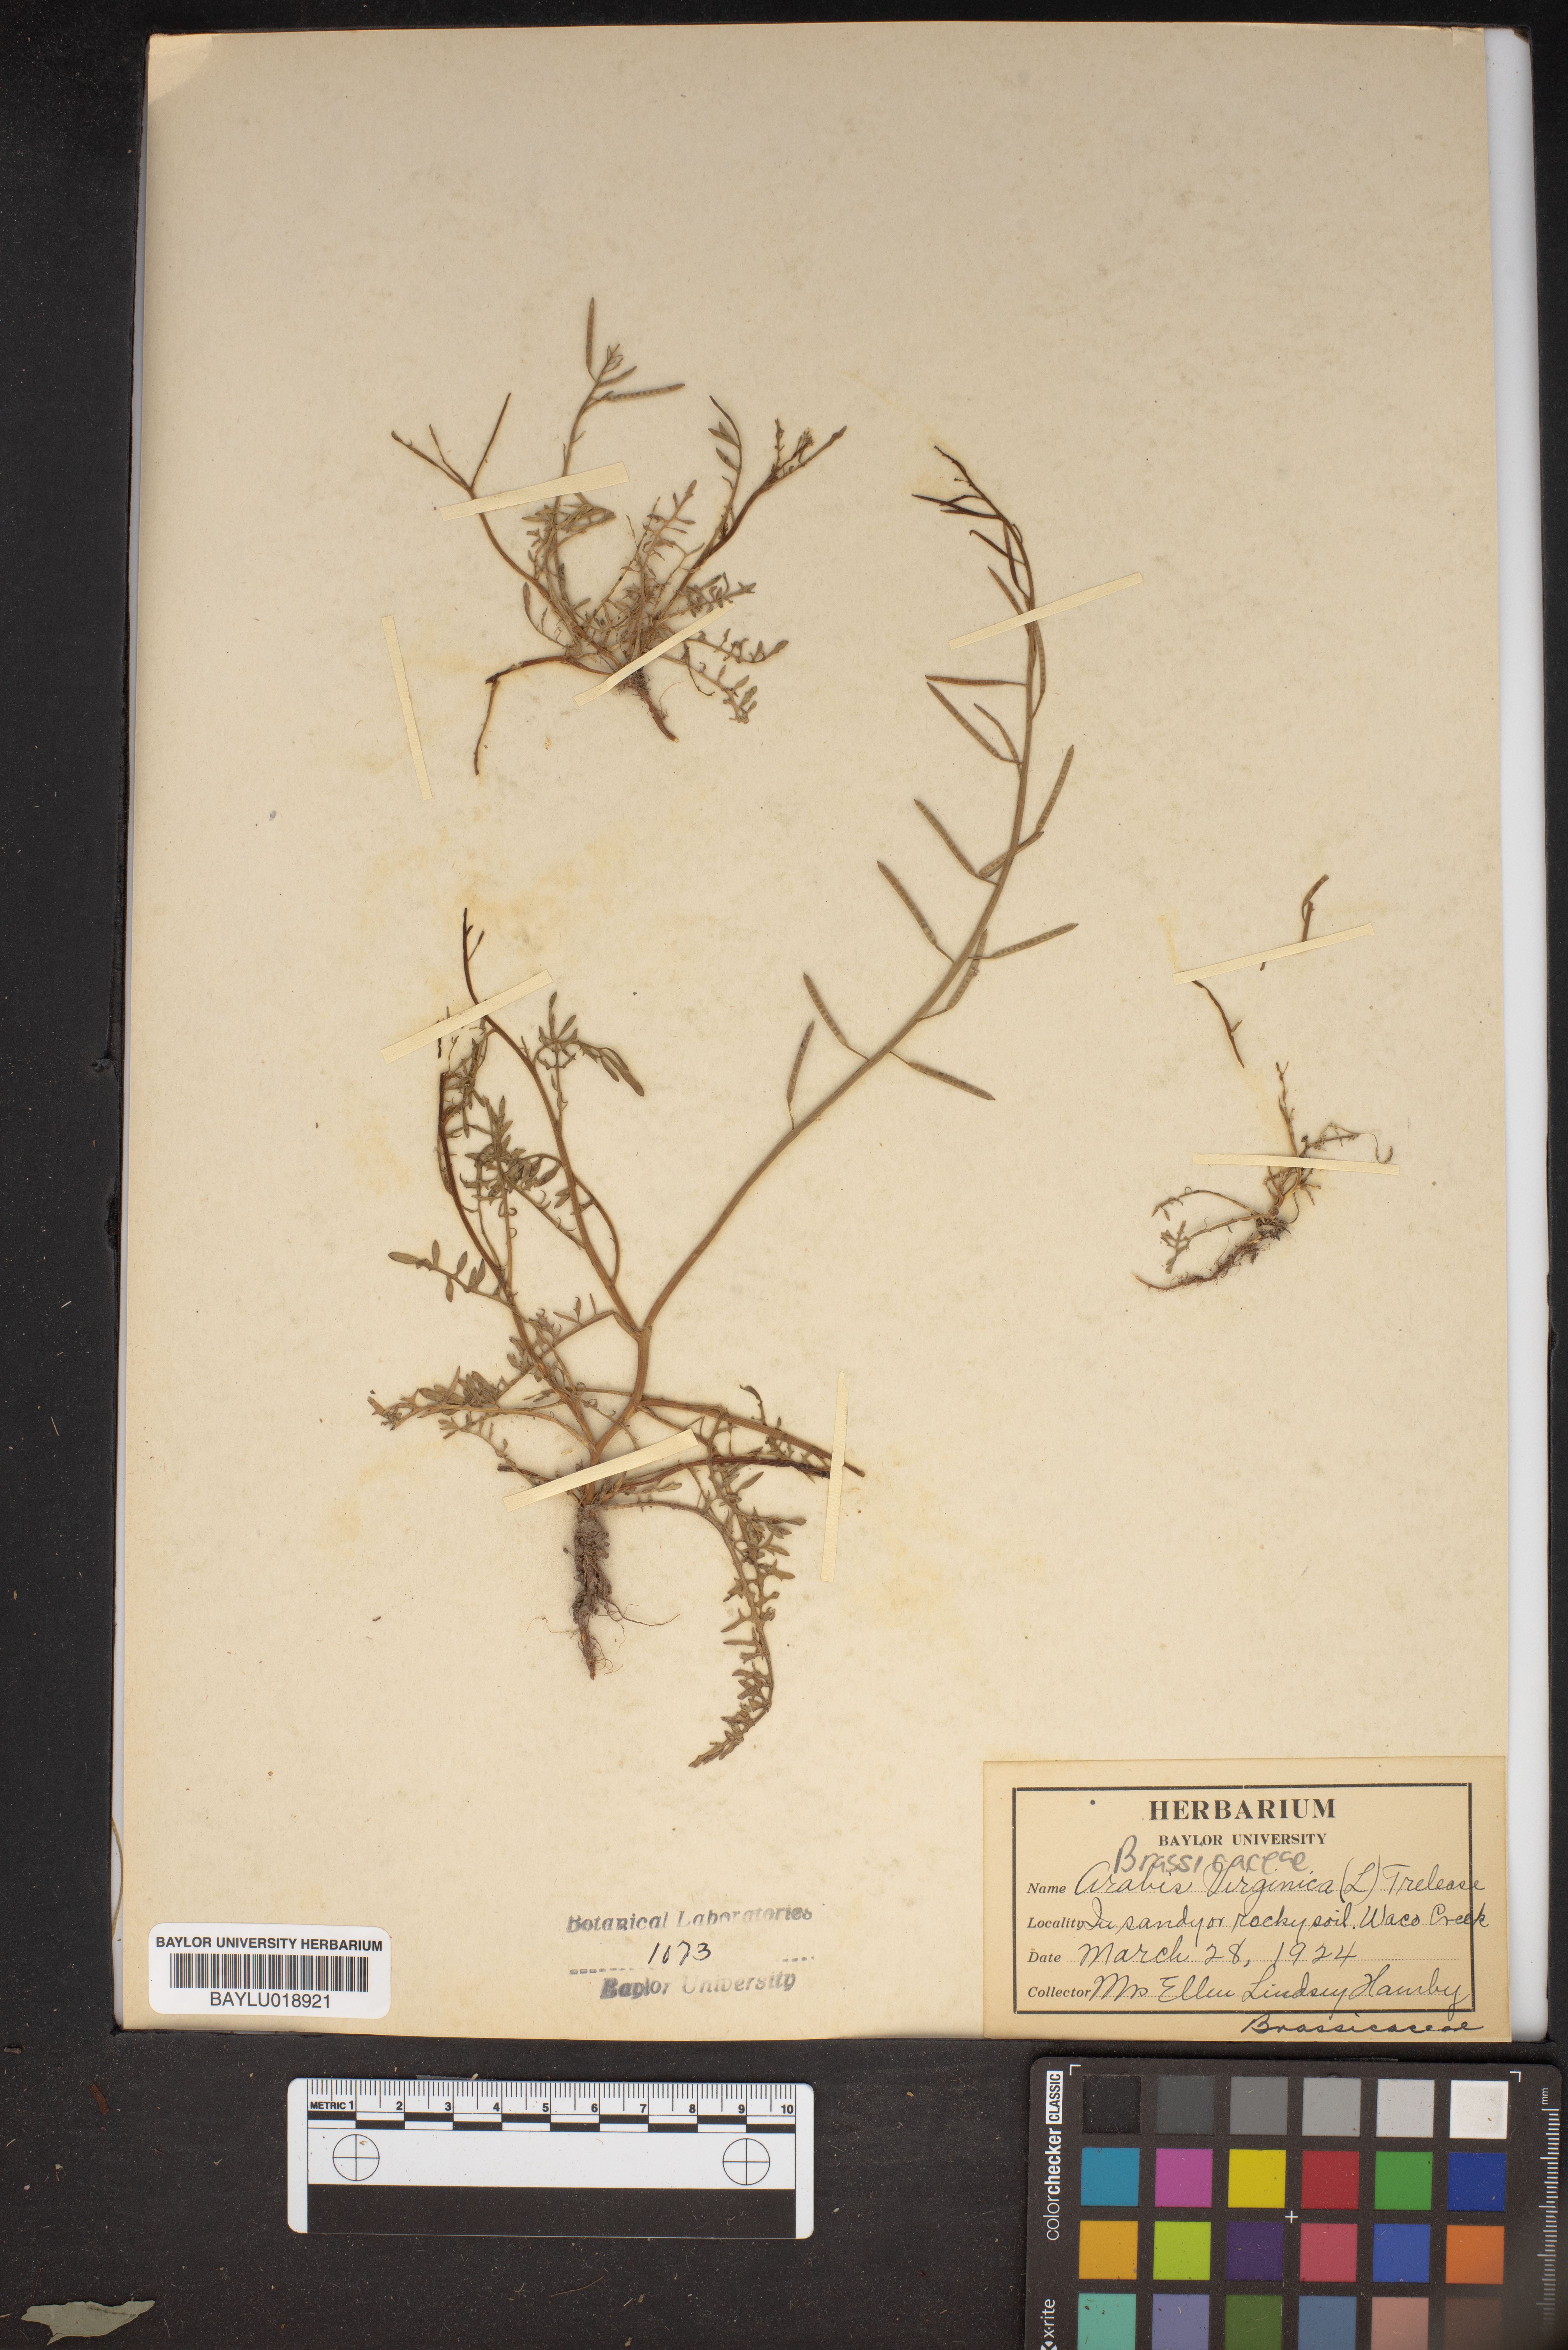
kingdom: Plantae
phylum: Tracheophyta
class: Magnoliopsida
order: Brassicales
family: Brassicaceae
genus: Planodes
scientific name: Planodes virginicum
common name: Virginia cress
